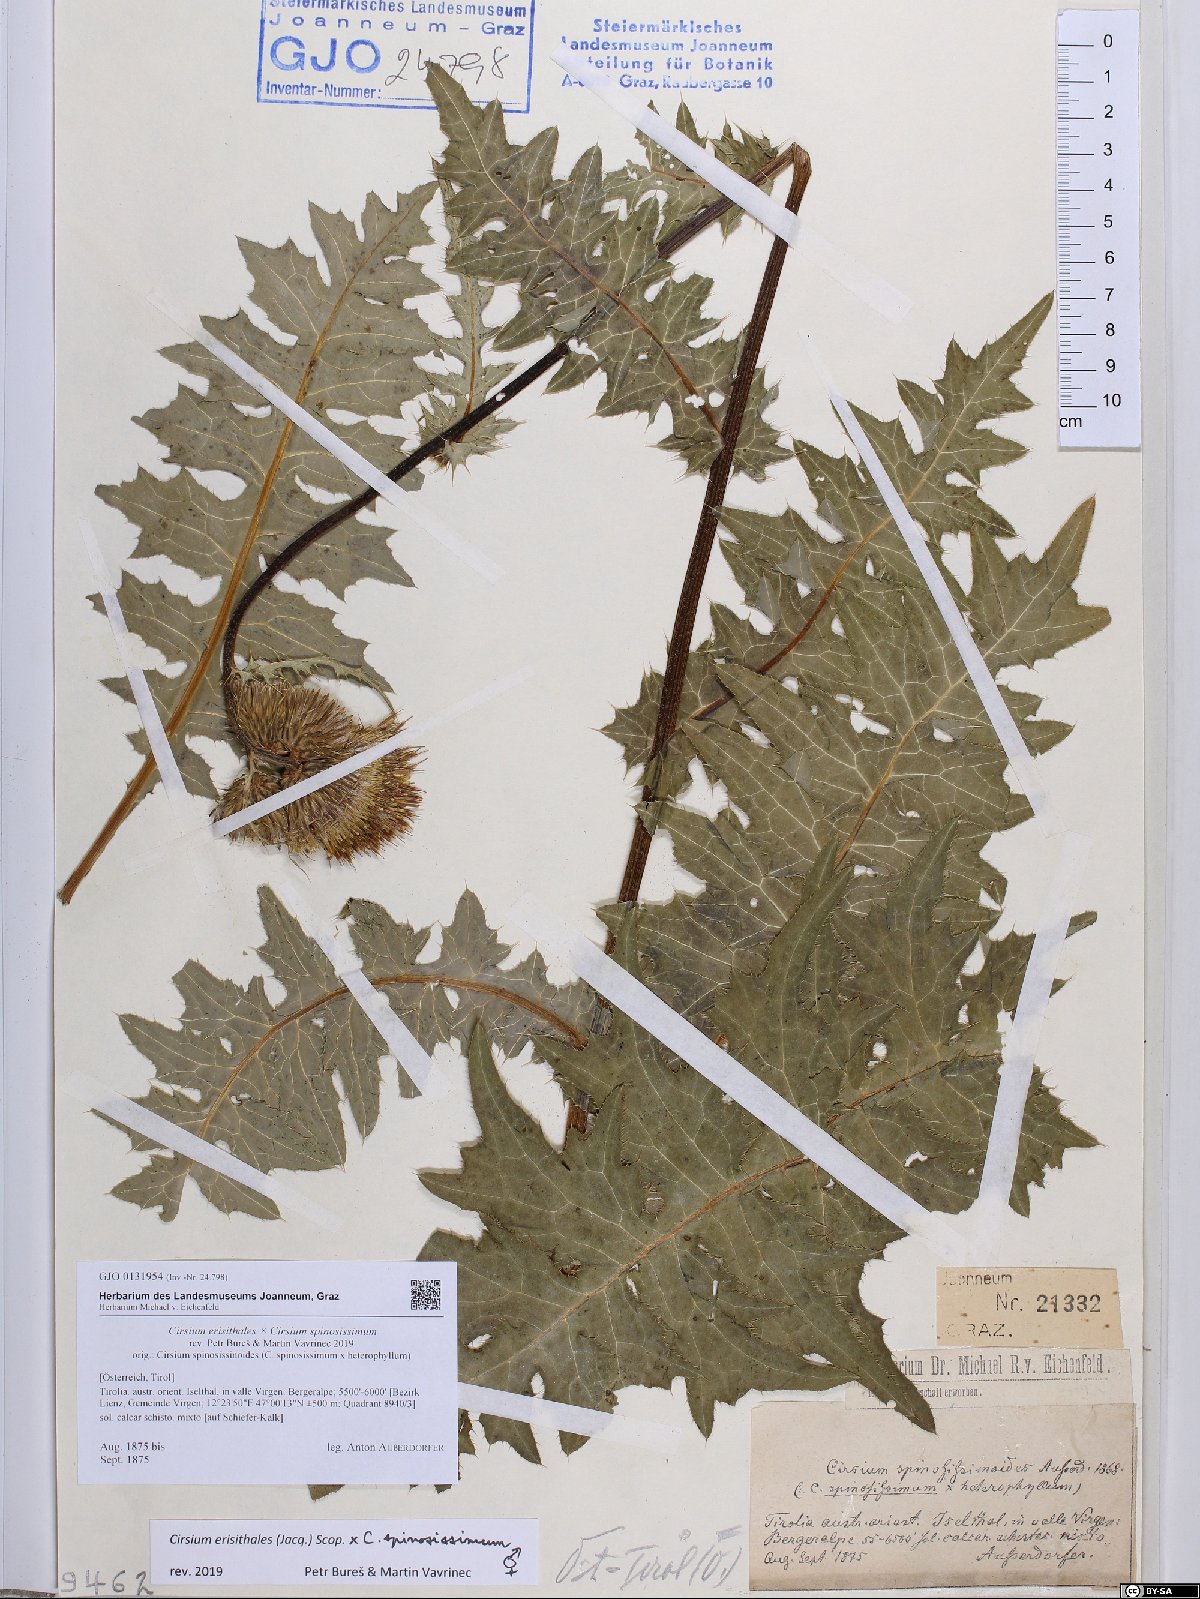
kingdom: Plantae
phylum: Tracheophyta
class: Magnoliopsida
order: Asterales
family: Asteraceae
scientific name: Asteraceae
